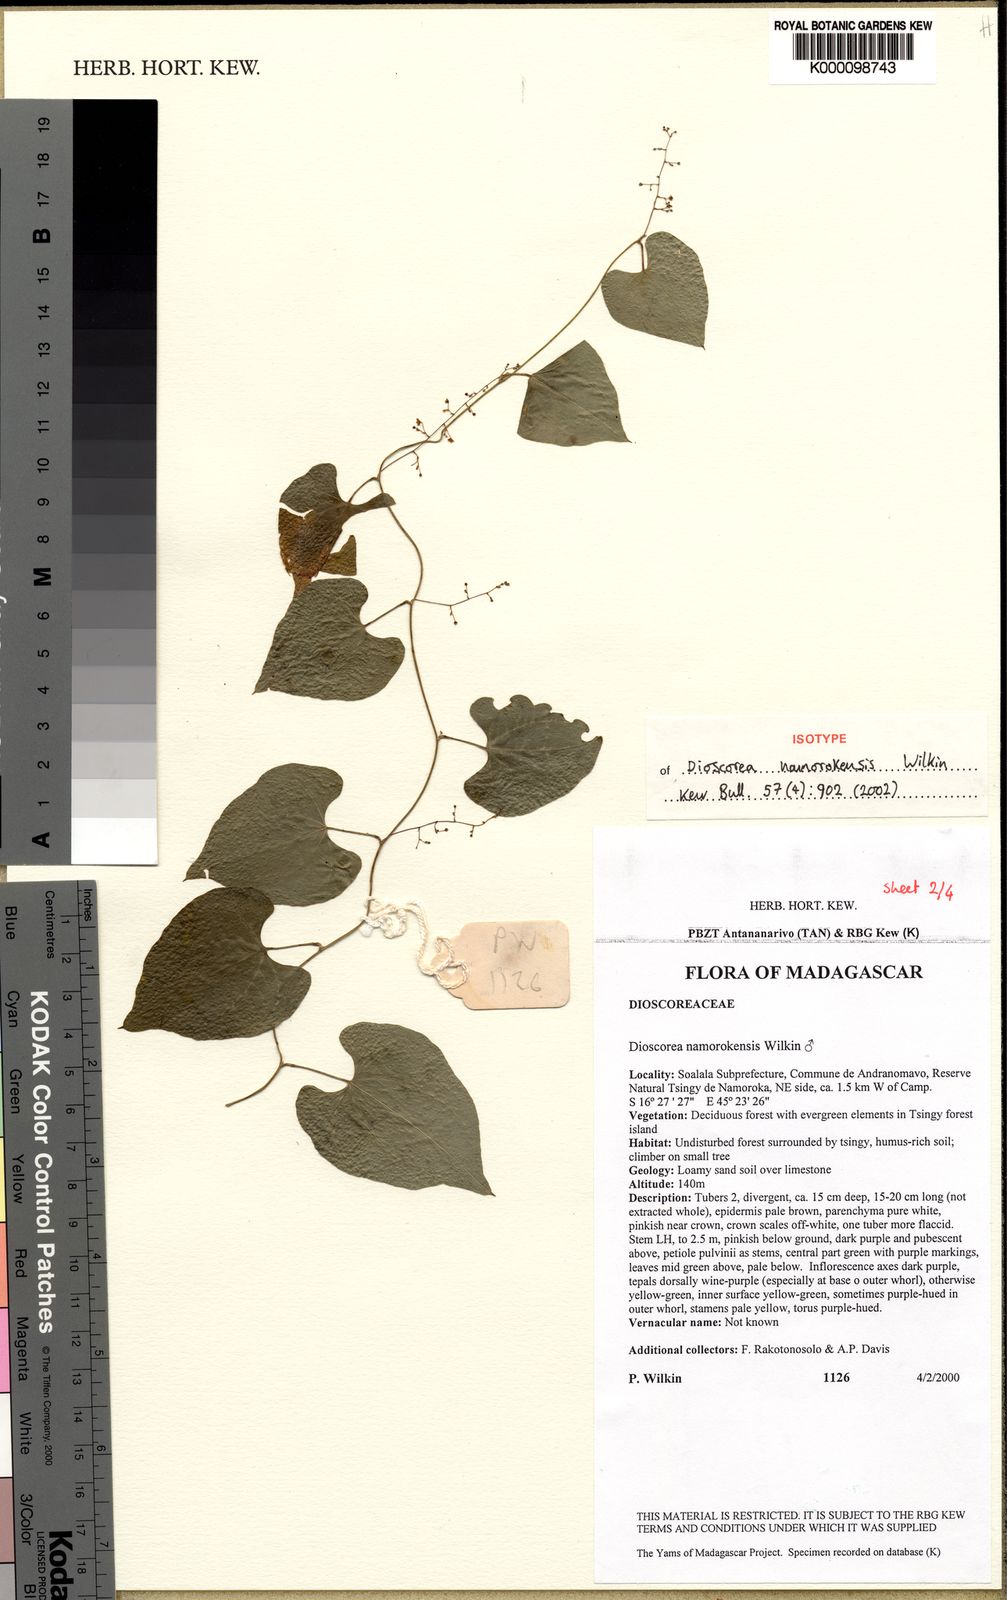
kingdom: Plantae
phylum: Tracheophyta
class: Liliopsida
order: Dioscoreales
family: Dioscoreaceae
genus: Dioscorea
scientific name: Dioscorea namorokensis
